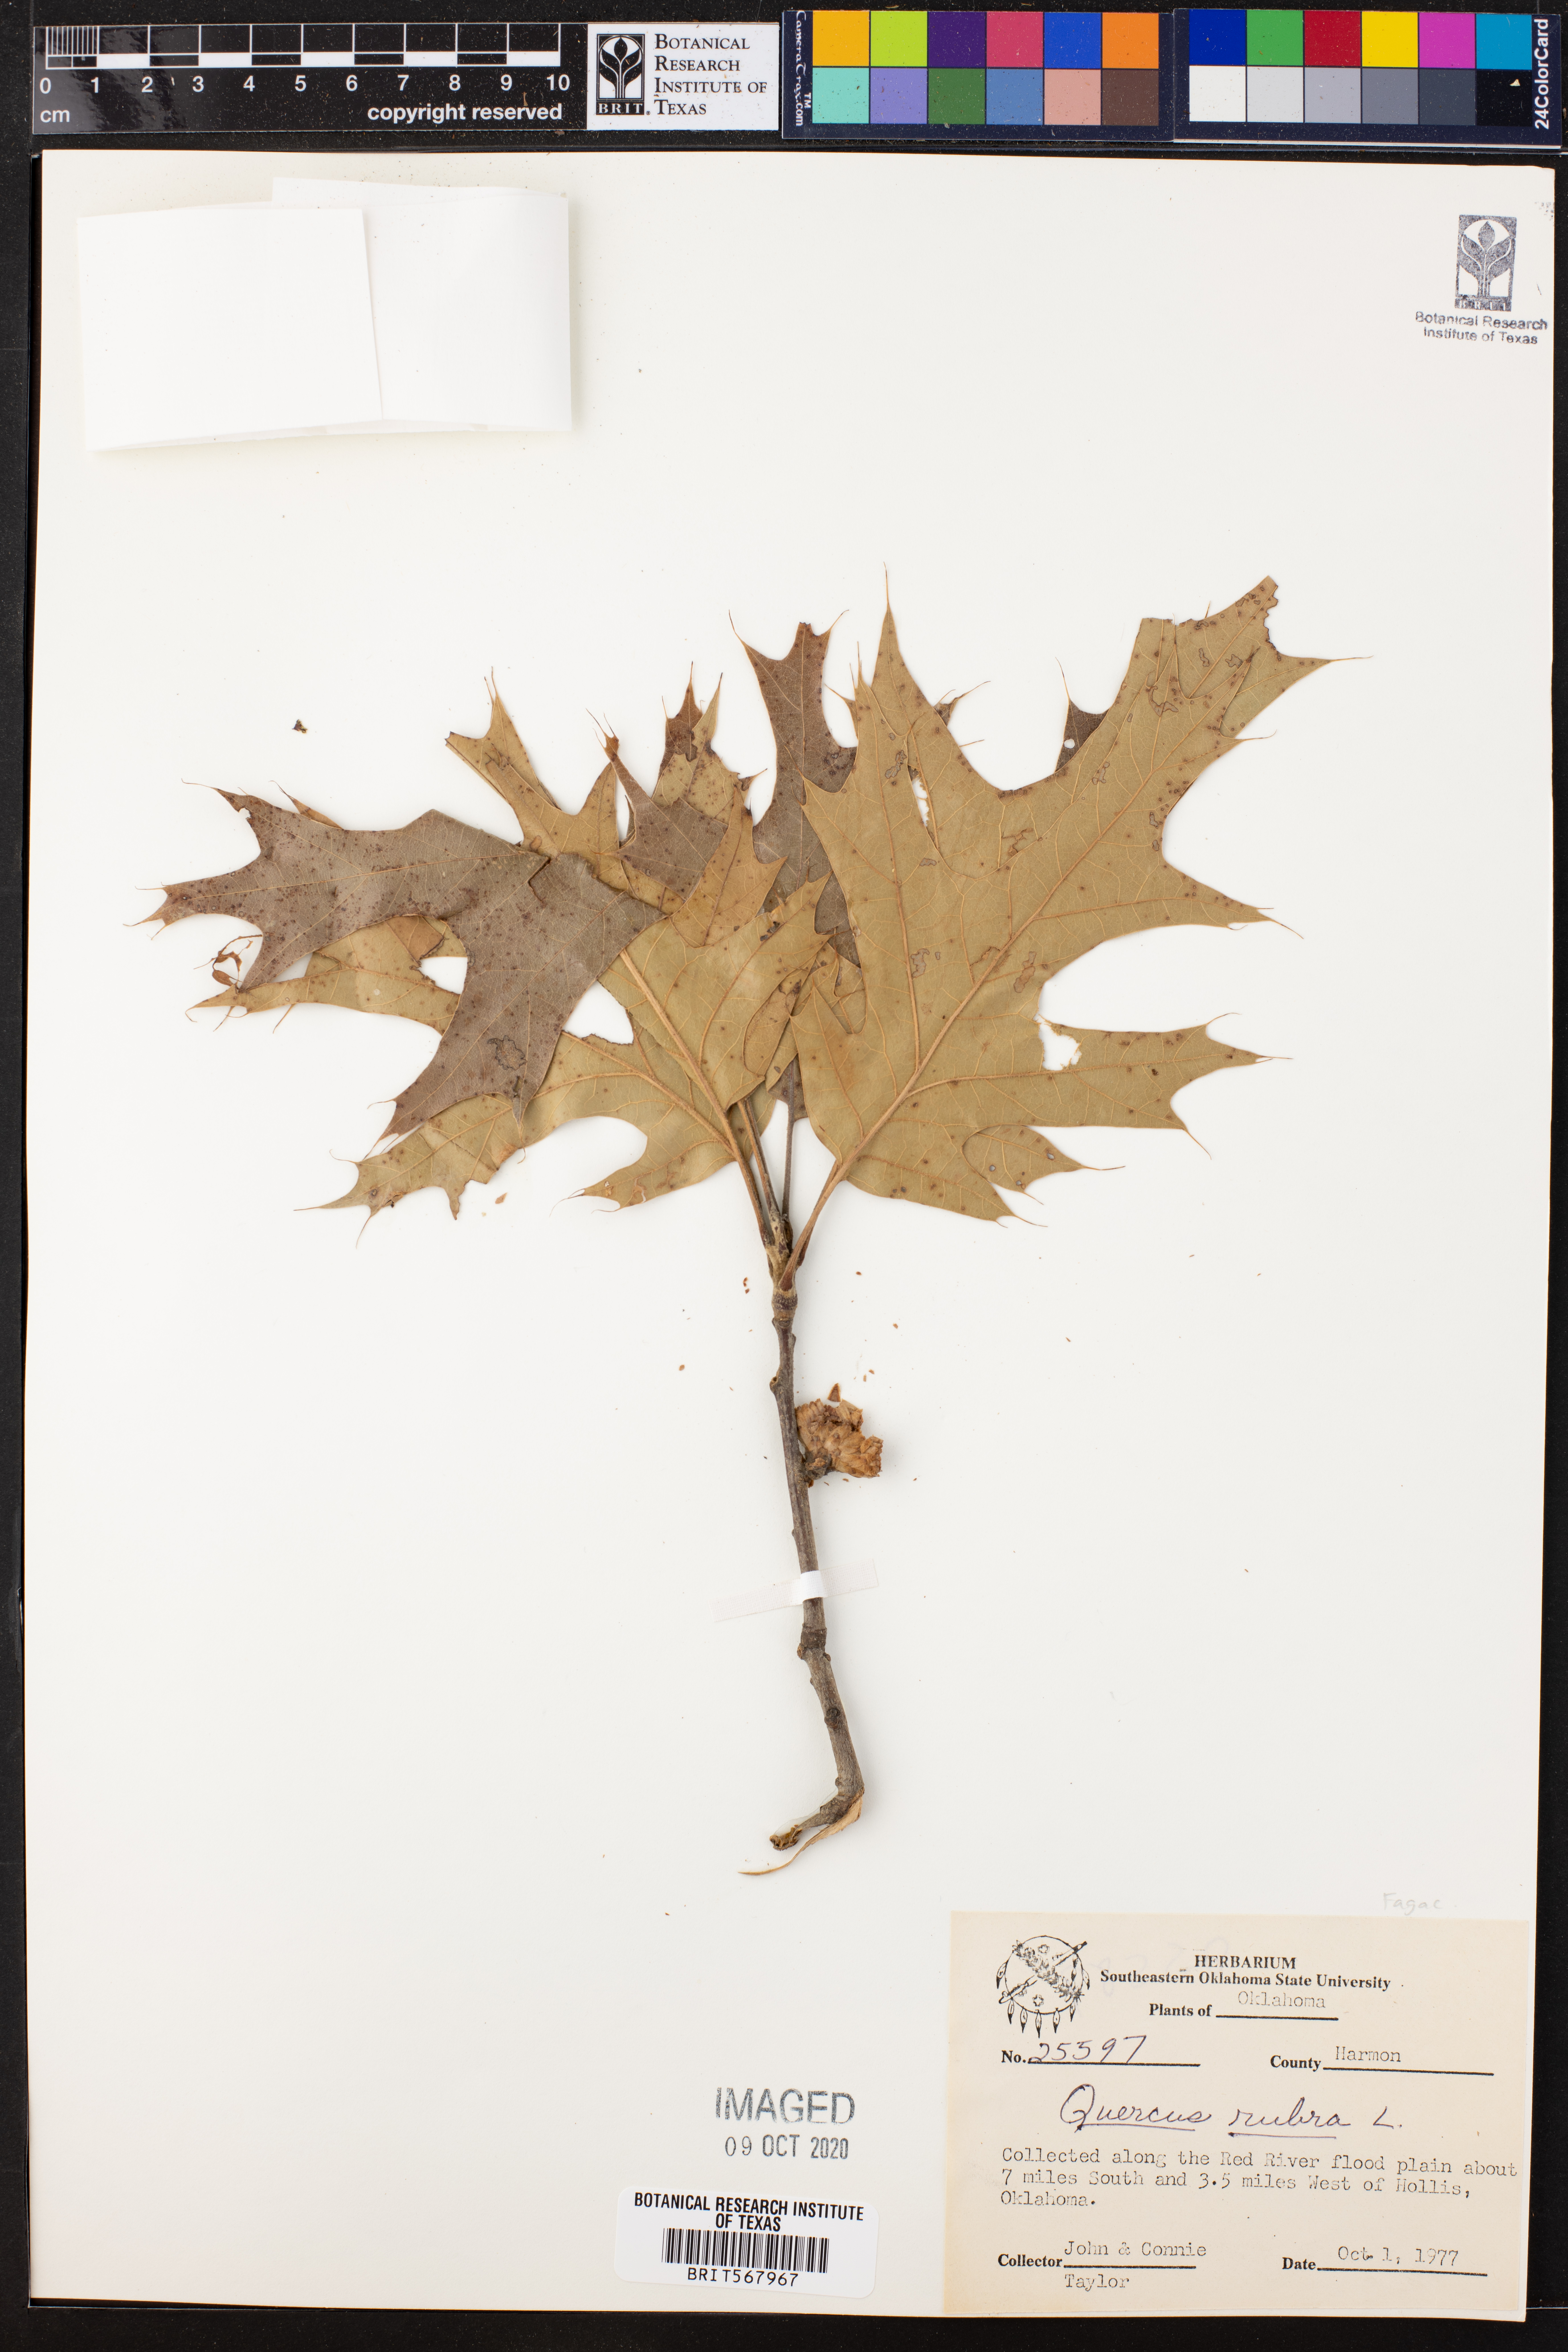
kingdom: Plantae
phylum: Tracheophyta
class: Magnoliopsida
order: Fagales
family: Fagaceae
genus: Quercus
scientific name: Quercus rubra
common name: Red oak
